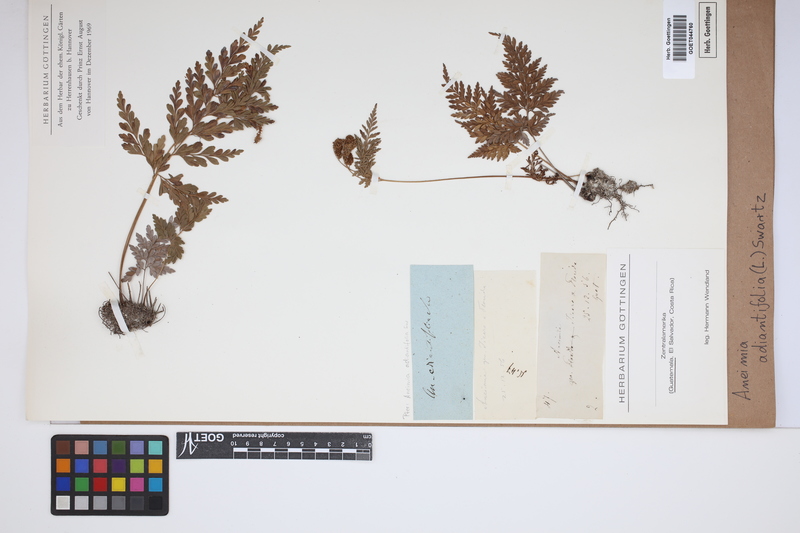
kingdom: Plantae
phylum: Tracheophyta
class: Polypodiopsida
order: Schizaeales
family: Anemiaceae
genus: Anemia
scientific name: Anemia adiantifolia
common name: Pine fern
